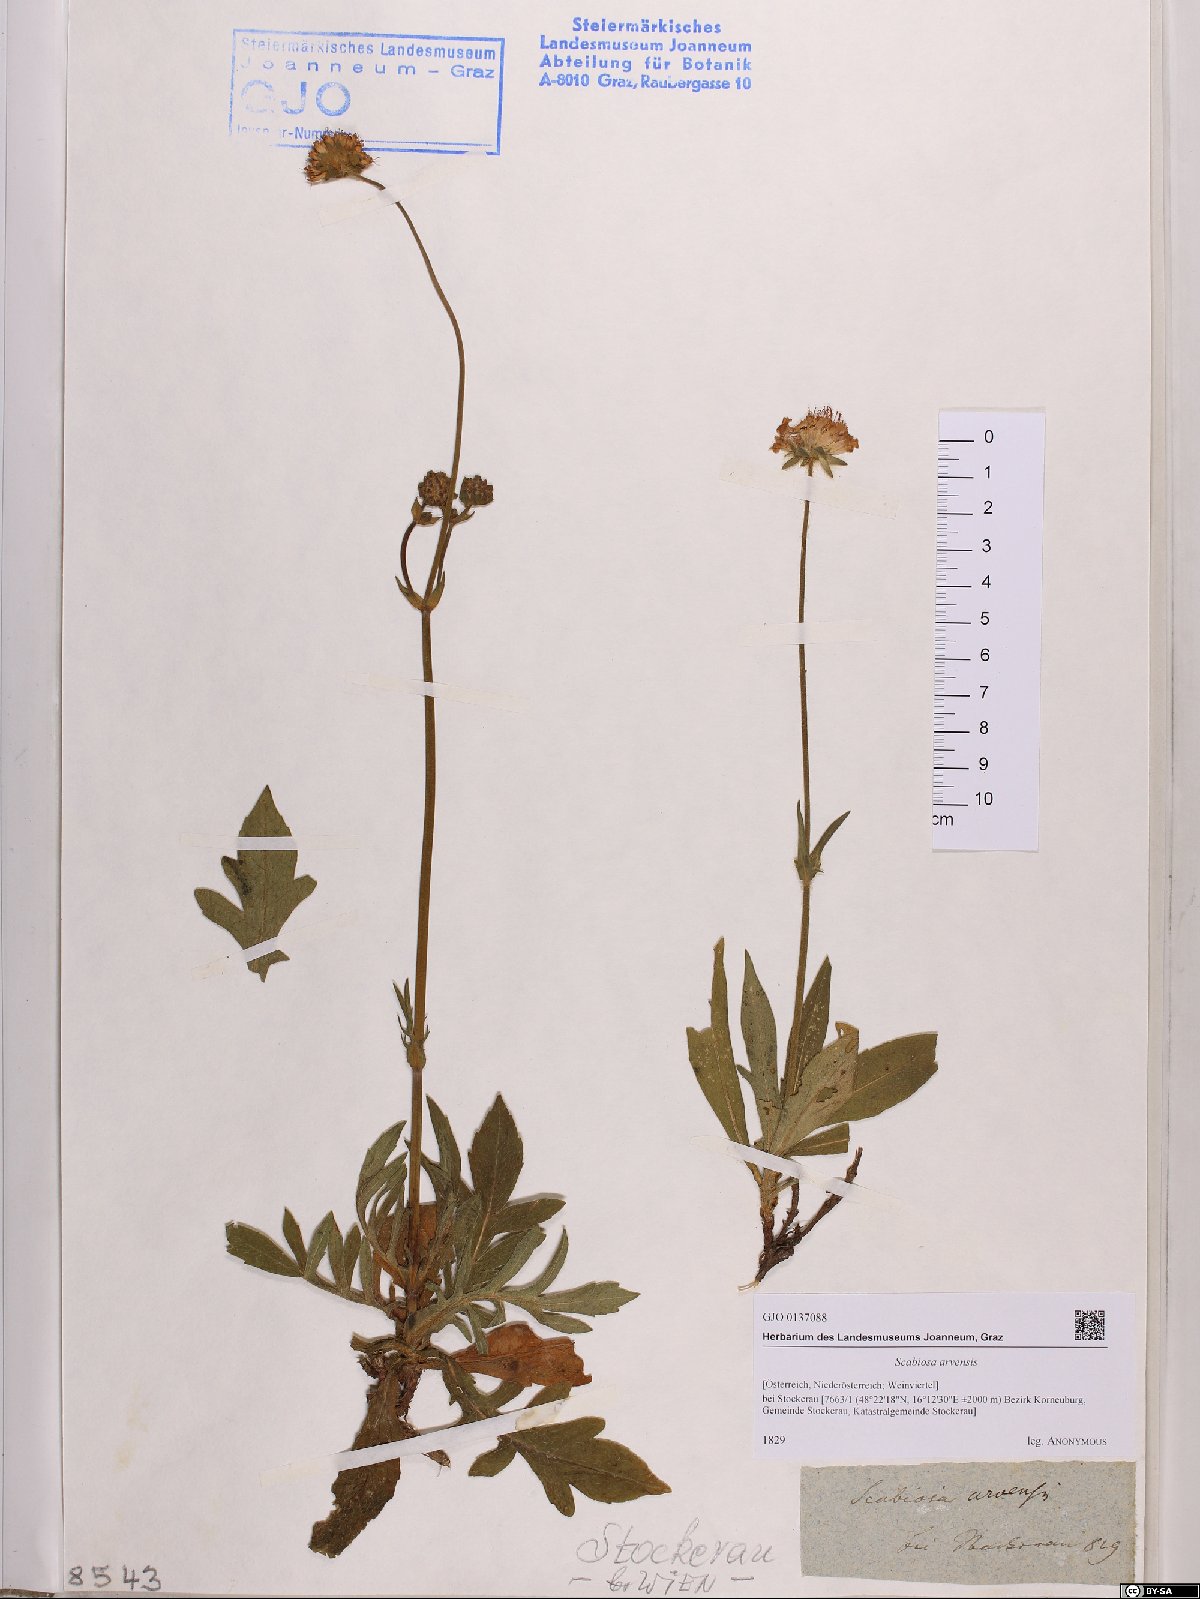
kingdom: Plantae
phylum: Tracheophyta
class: Magnoliopsida
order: Dipsacales
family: Caprifoliaceae
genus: Knautia
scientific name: Knautia arvensis
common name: Field scabiosa
